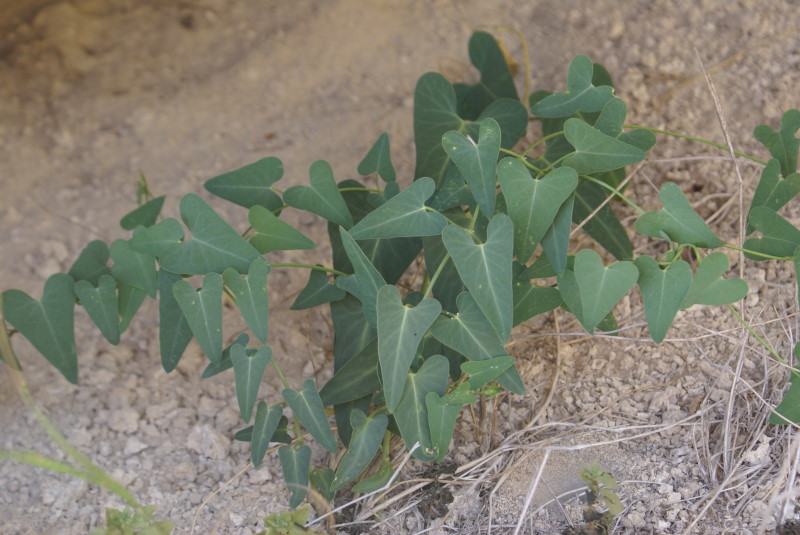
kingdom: Plantae
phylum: Tracheophyta
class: Magnoliopsida
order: Gentianales
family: Apocynaceae
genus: Cynanchum
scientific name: Cynanchum acutum
